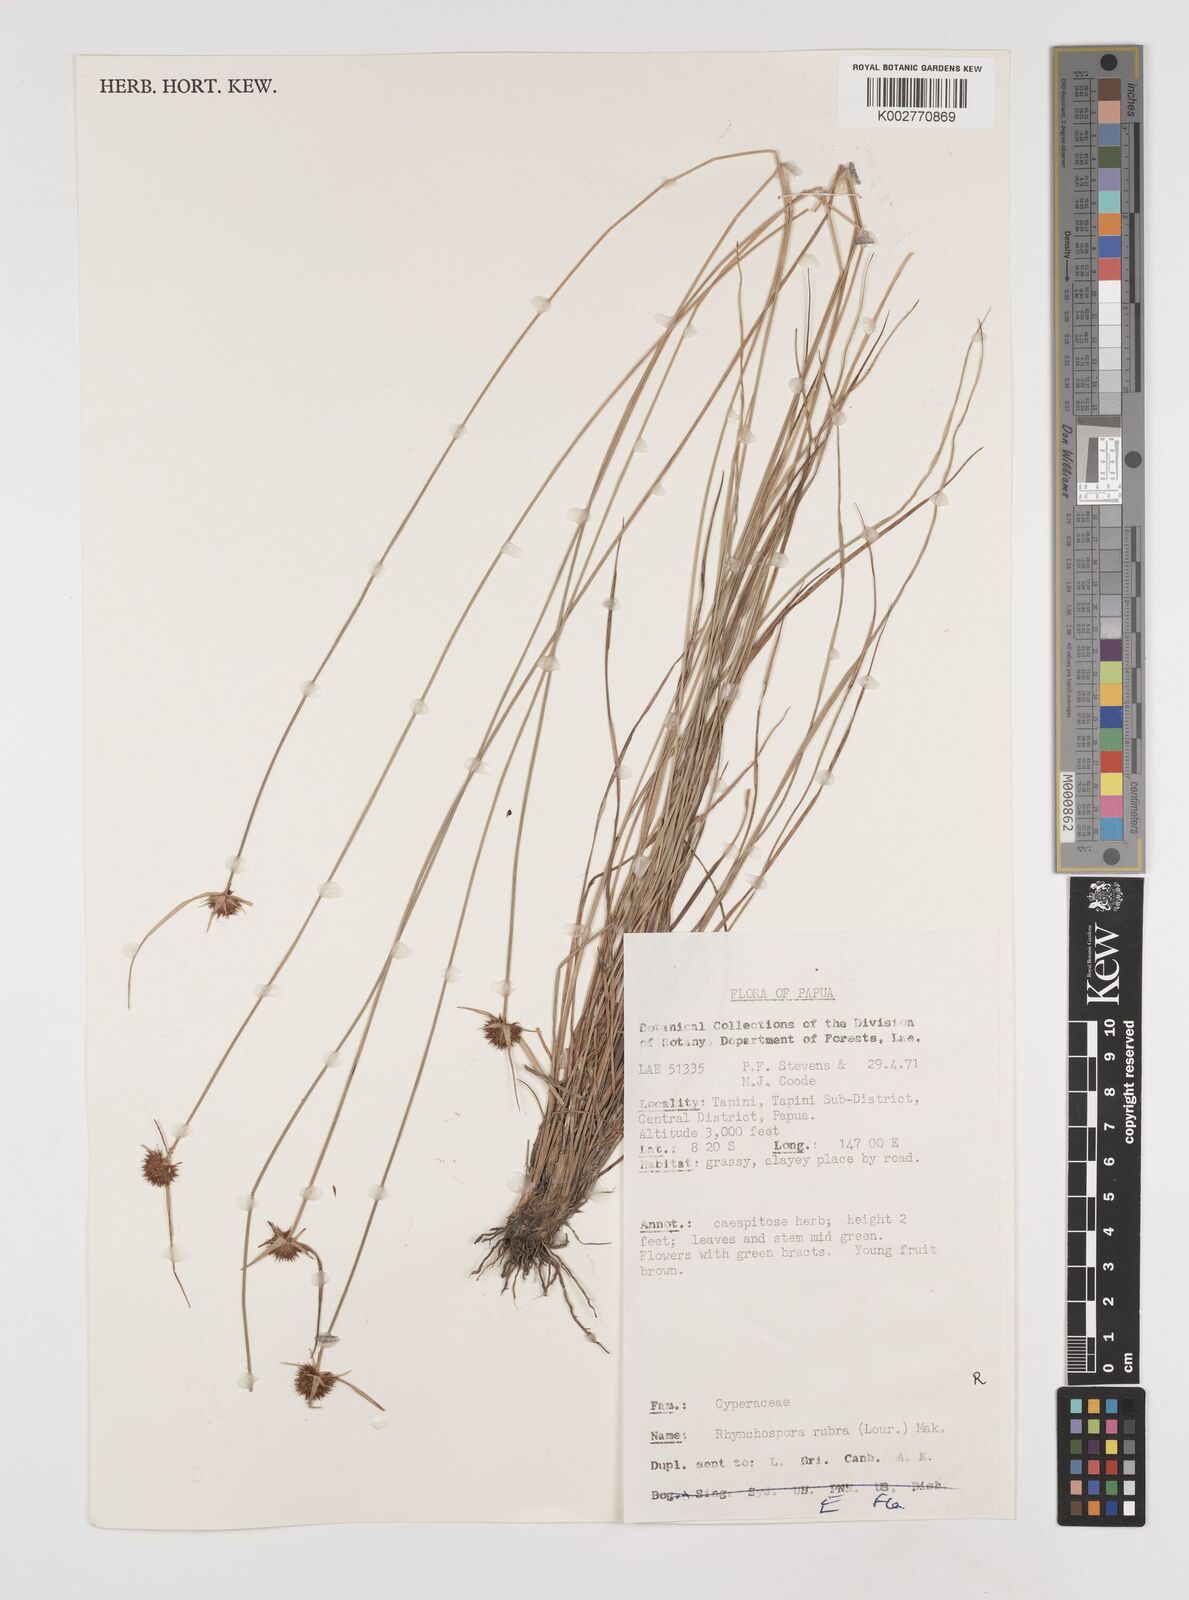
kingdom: Plantae
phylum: Tracheophyta
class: Liliopsida
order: Poales
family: Cyperaceae
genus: Rhynchospora
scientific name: Rhynchospora rubra
